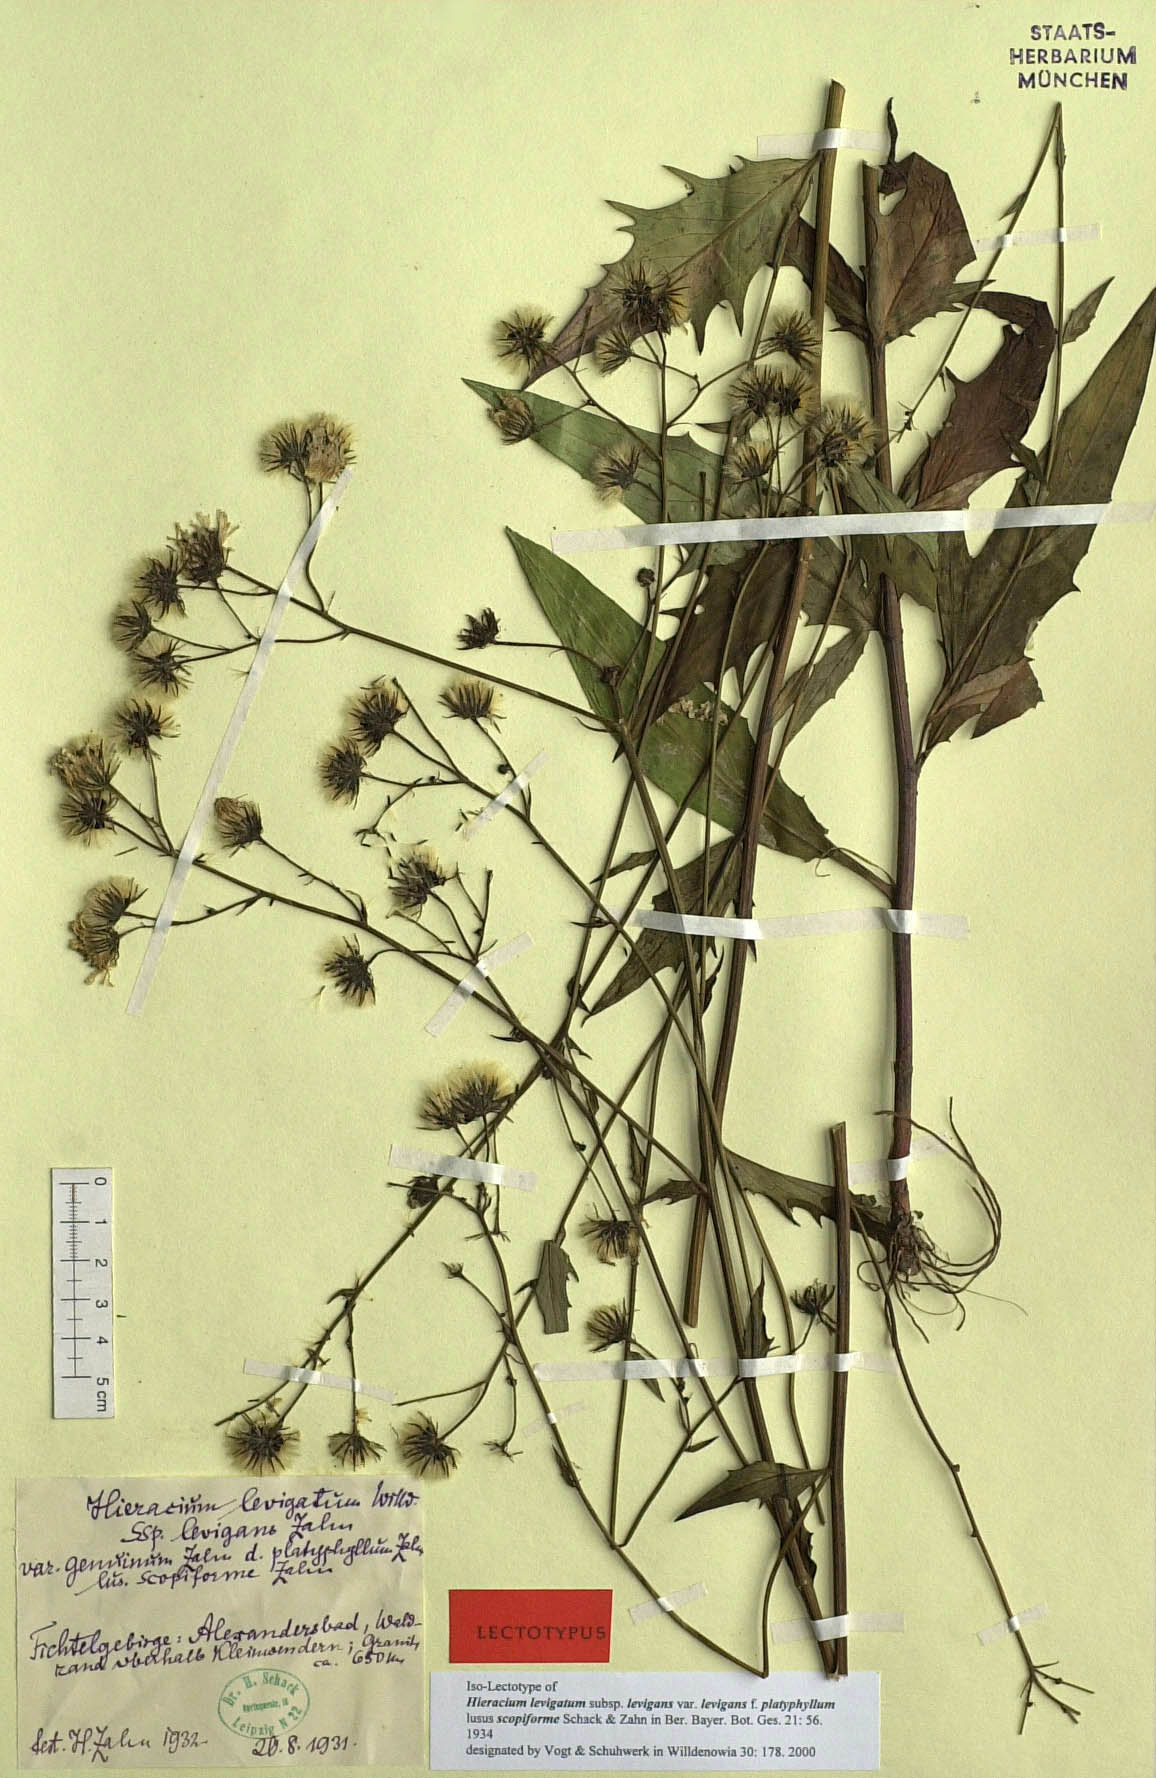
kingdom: Plantae
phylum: Tracheophyta
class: Magnoliopsida
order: Asterales
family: Asteraceae
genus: Hieracium
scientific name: Hieracium laevigatum
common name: Smooth hawkweed
